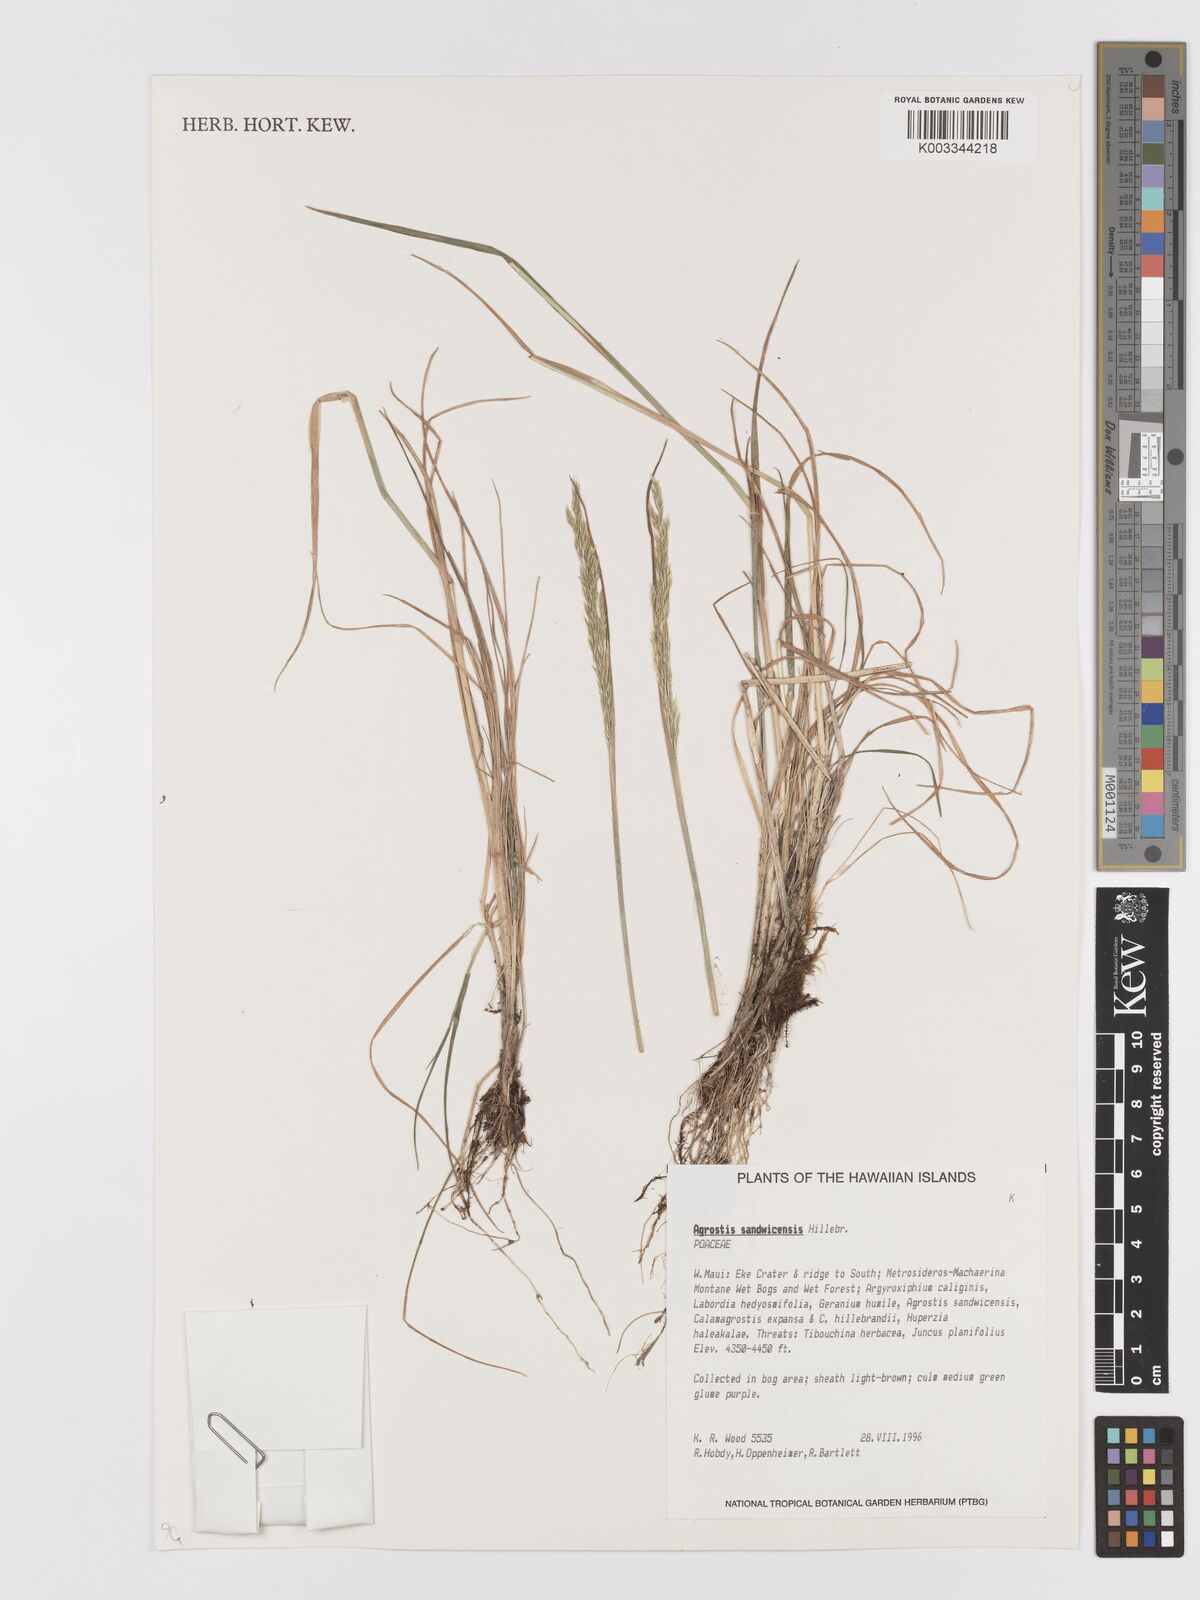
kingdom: Plantae
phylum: Tracheophyta
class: Liliopsida
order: Poales
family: Poaceae
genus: Agrostis
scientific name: Agrostis sandwicensis
